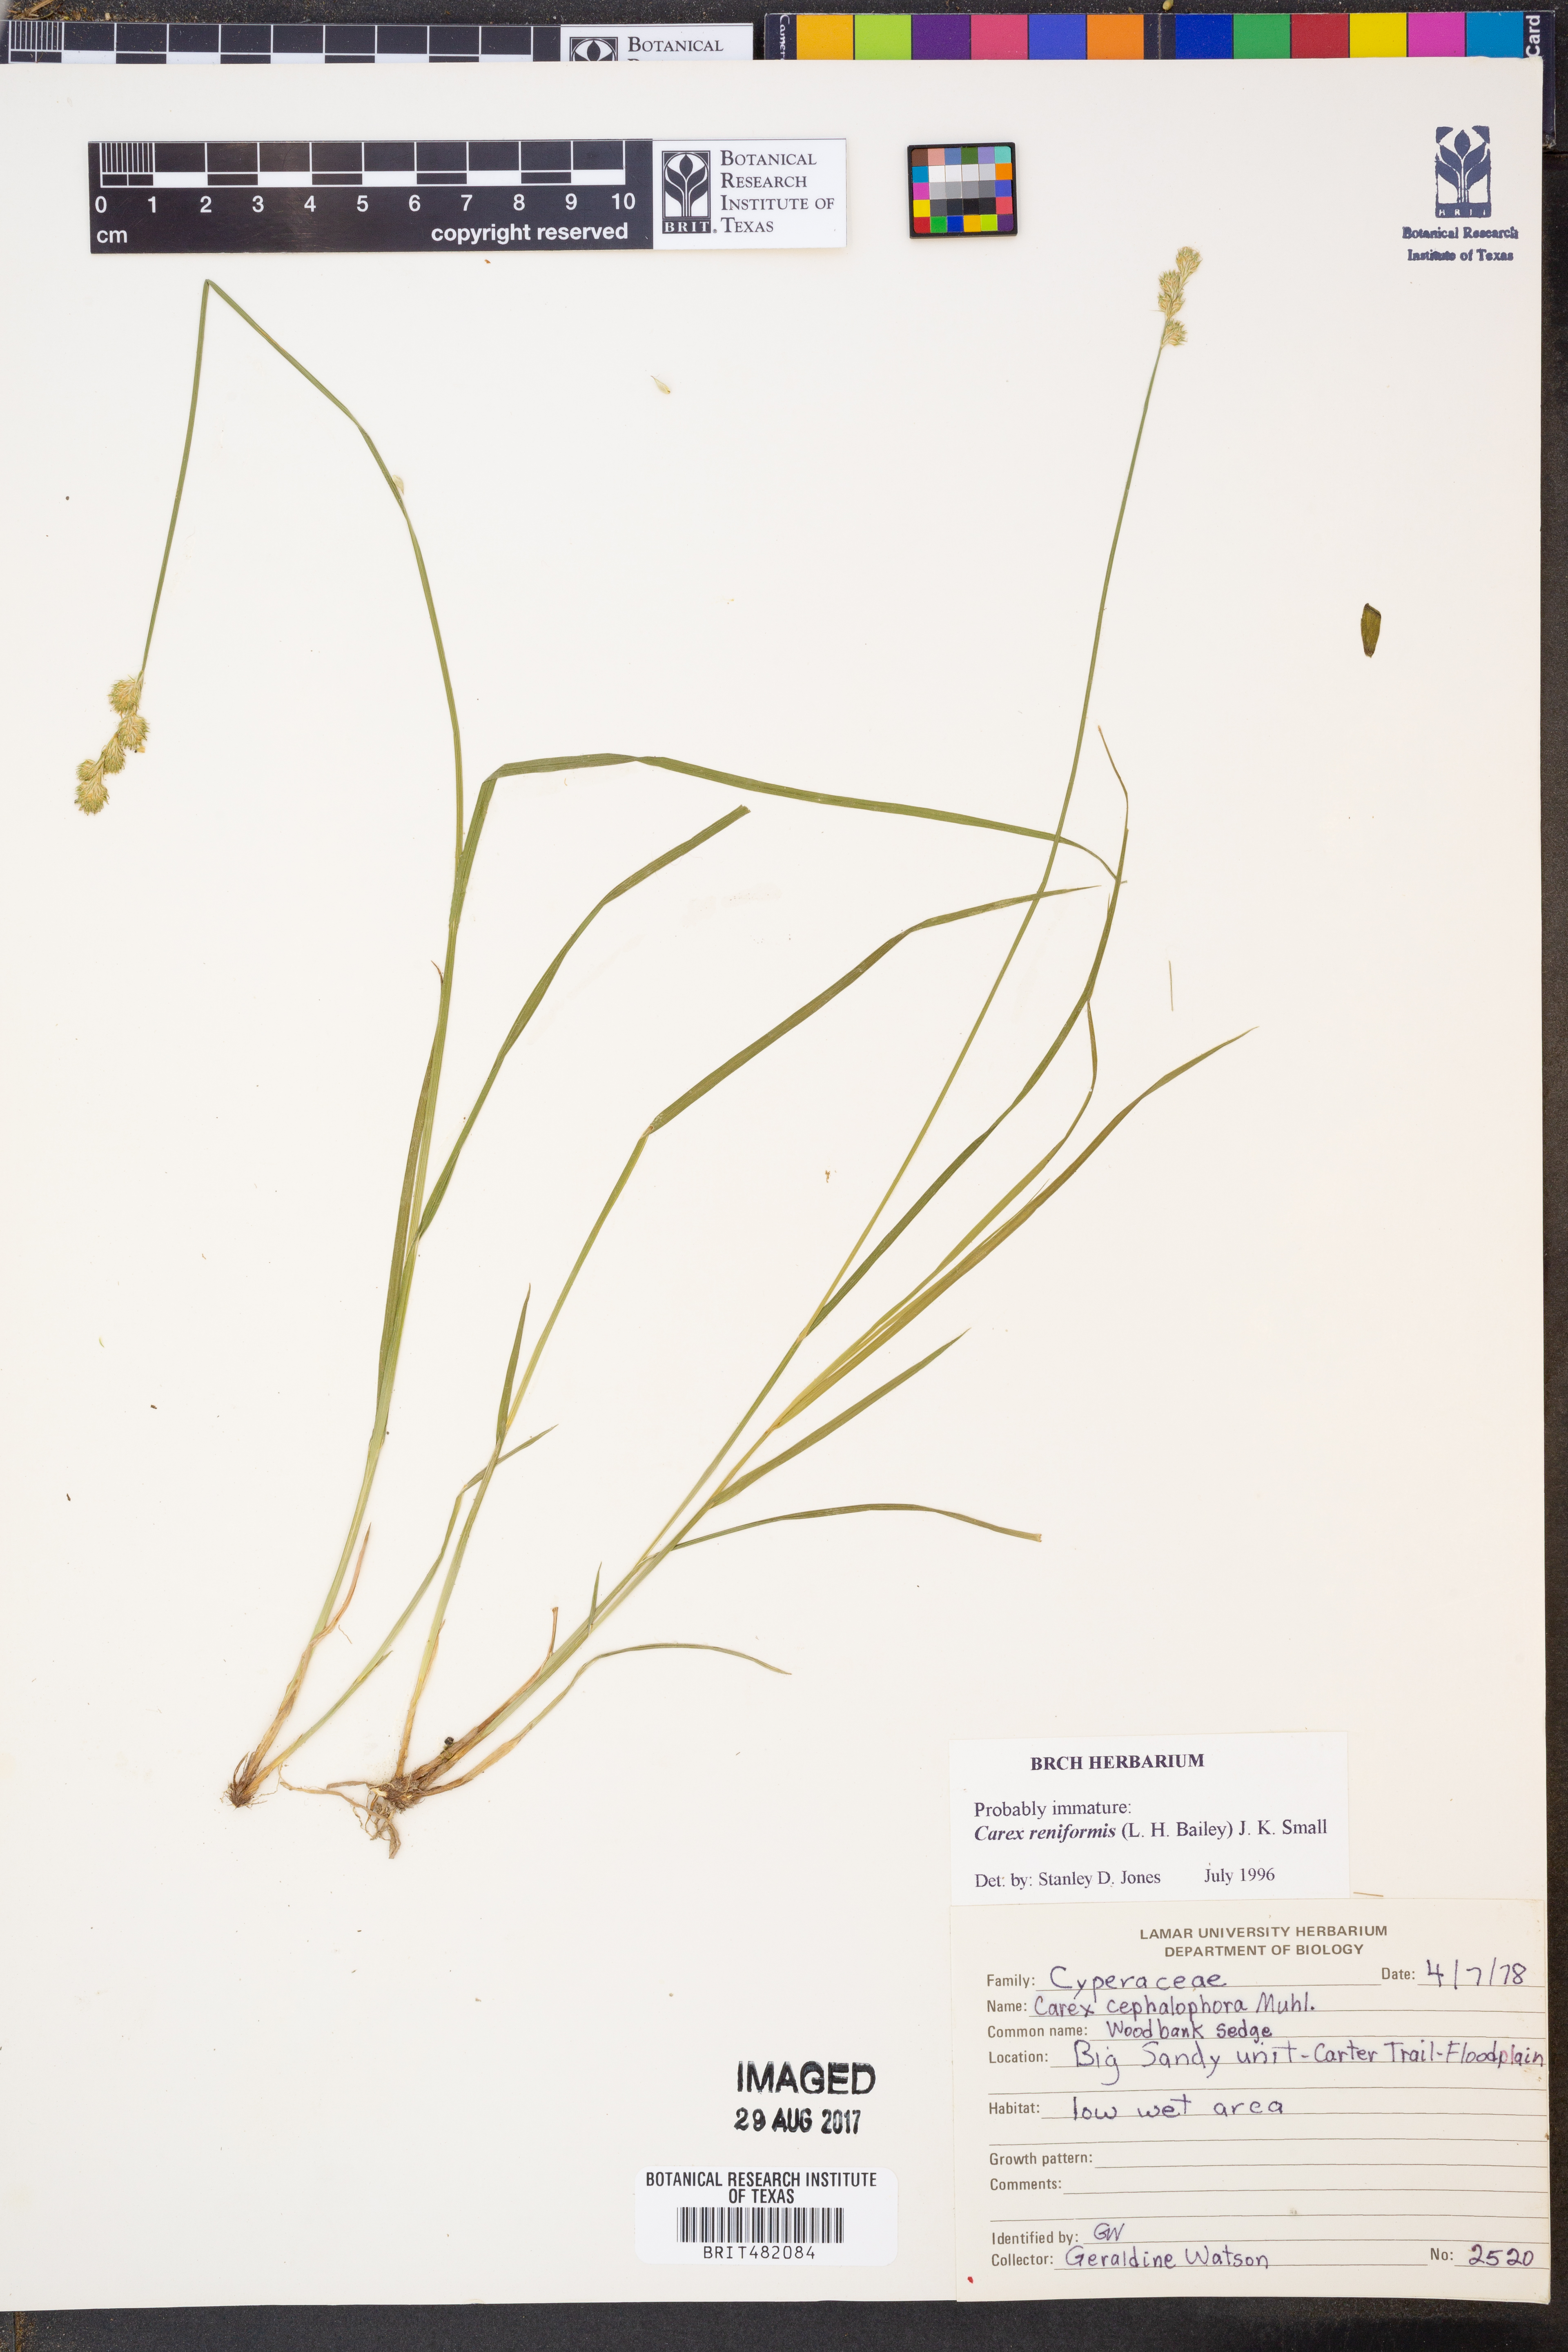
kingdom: Plantae
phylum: Tracheophyta
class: Liliopsida
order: Poales
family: Cyperaceae
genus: Carex
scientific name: Carex reniformis
